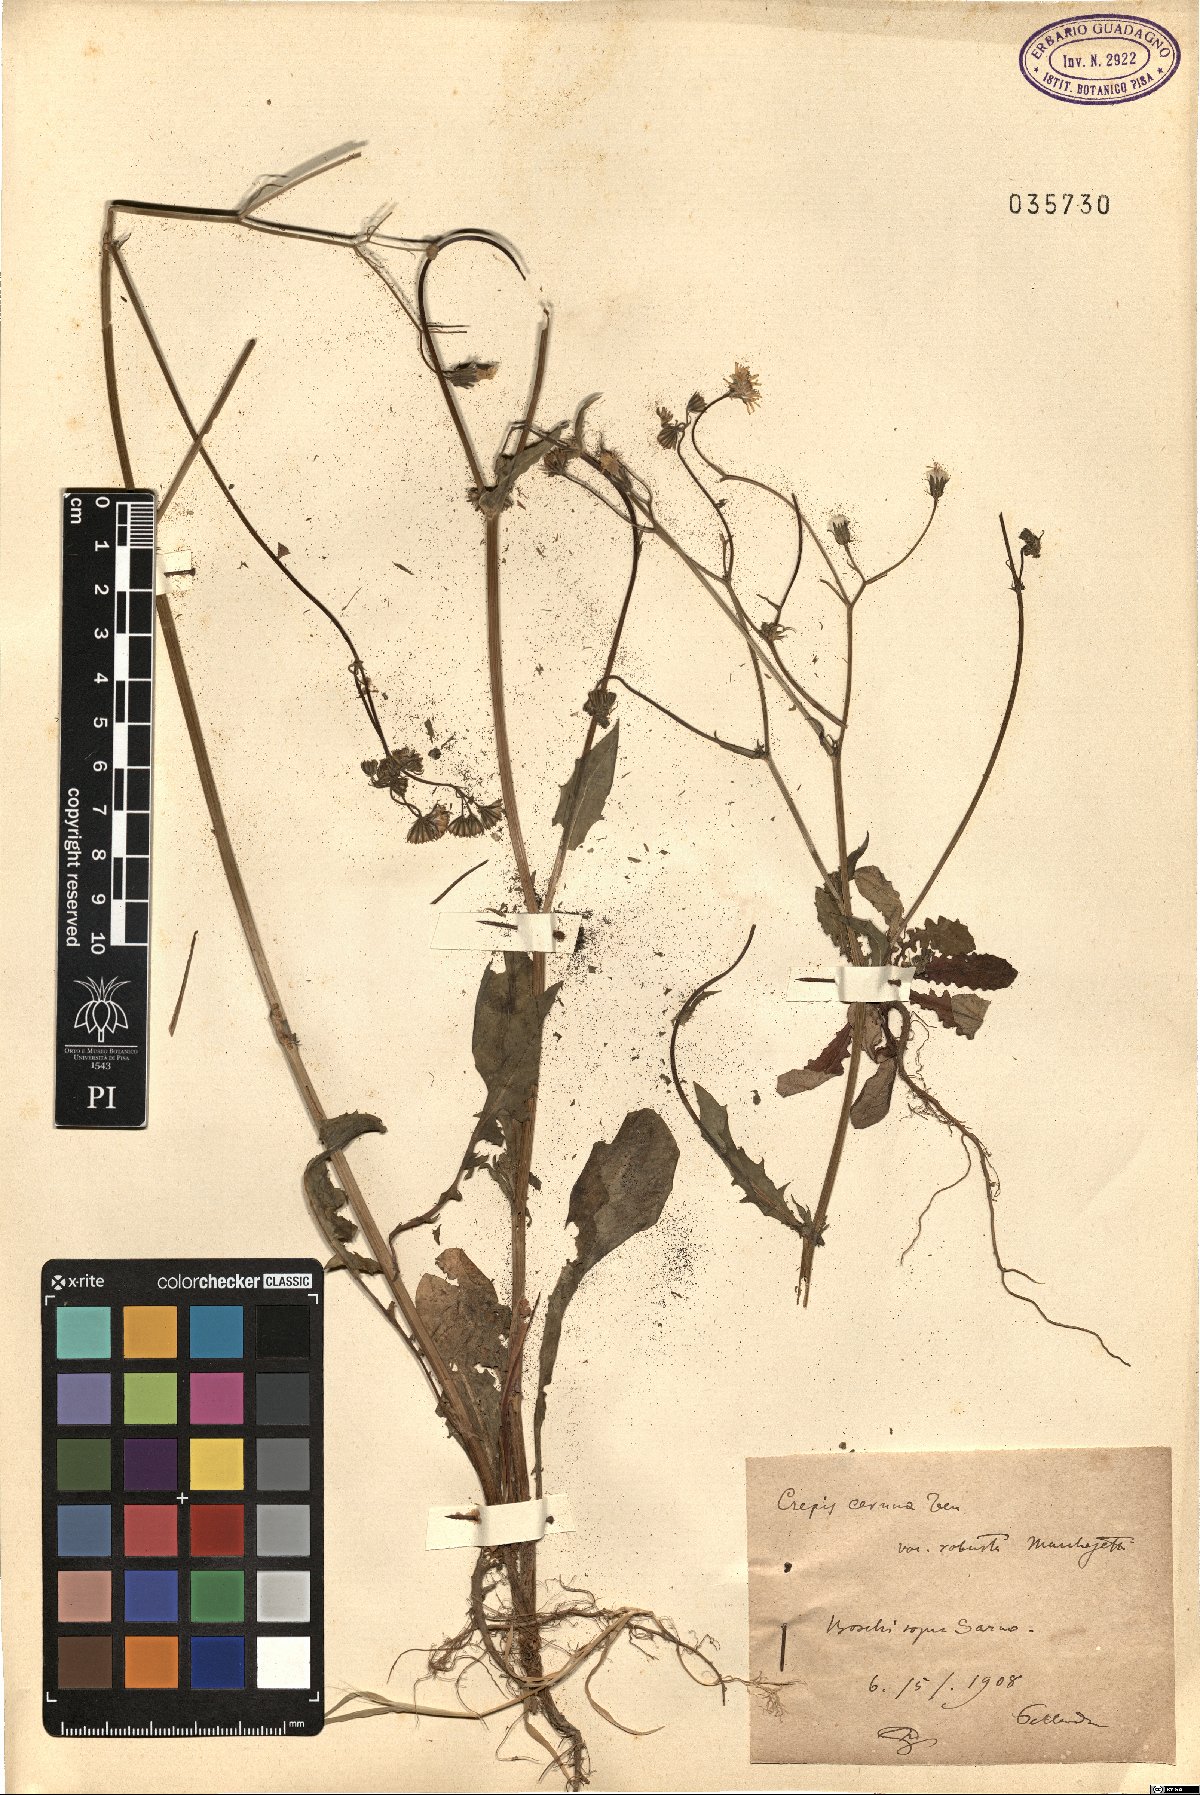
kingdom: Plantae
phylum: Tracheophyta
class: Magnoliopsida
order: Asterales
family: Asteraceae
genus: Crepis
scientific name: Crepis neglecta
